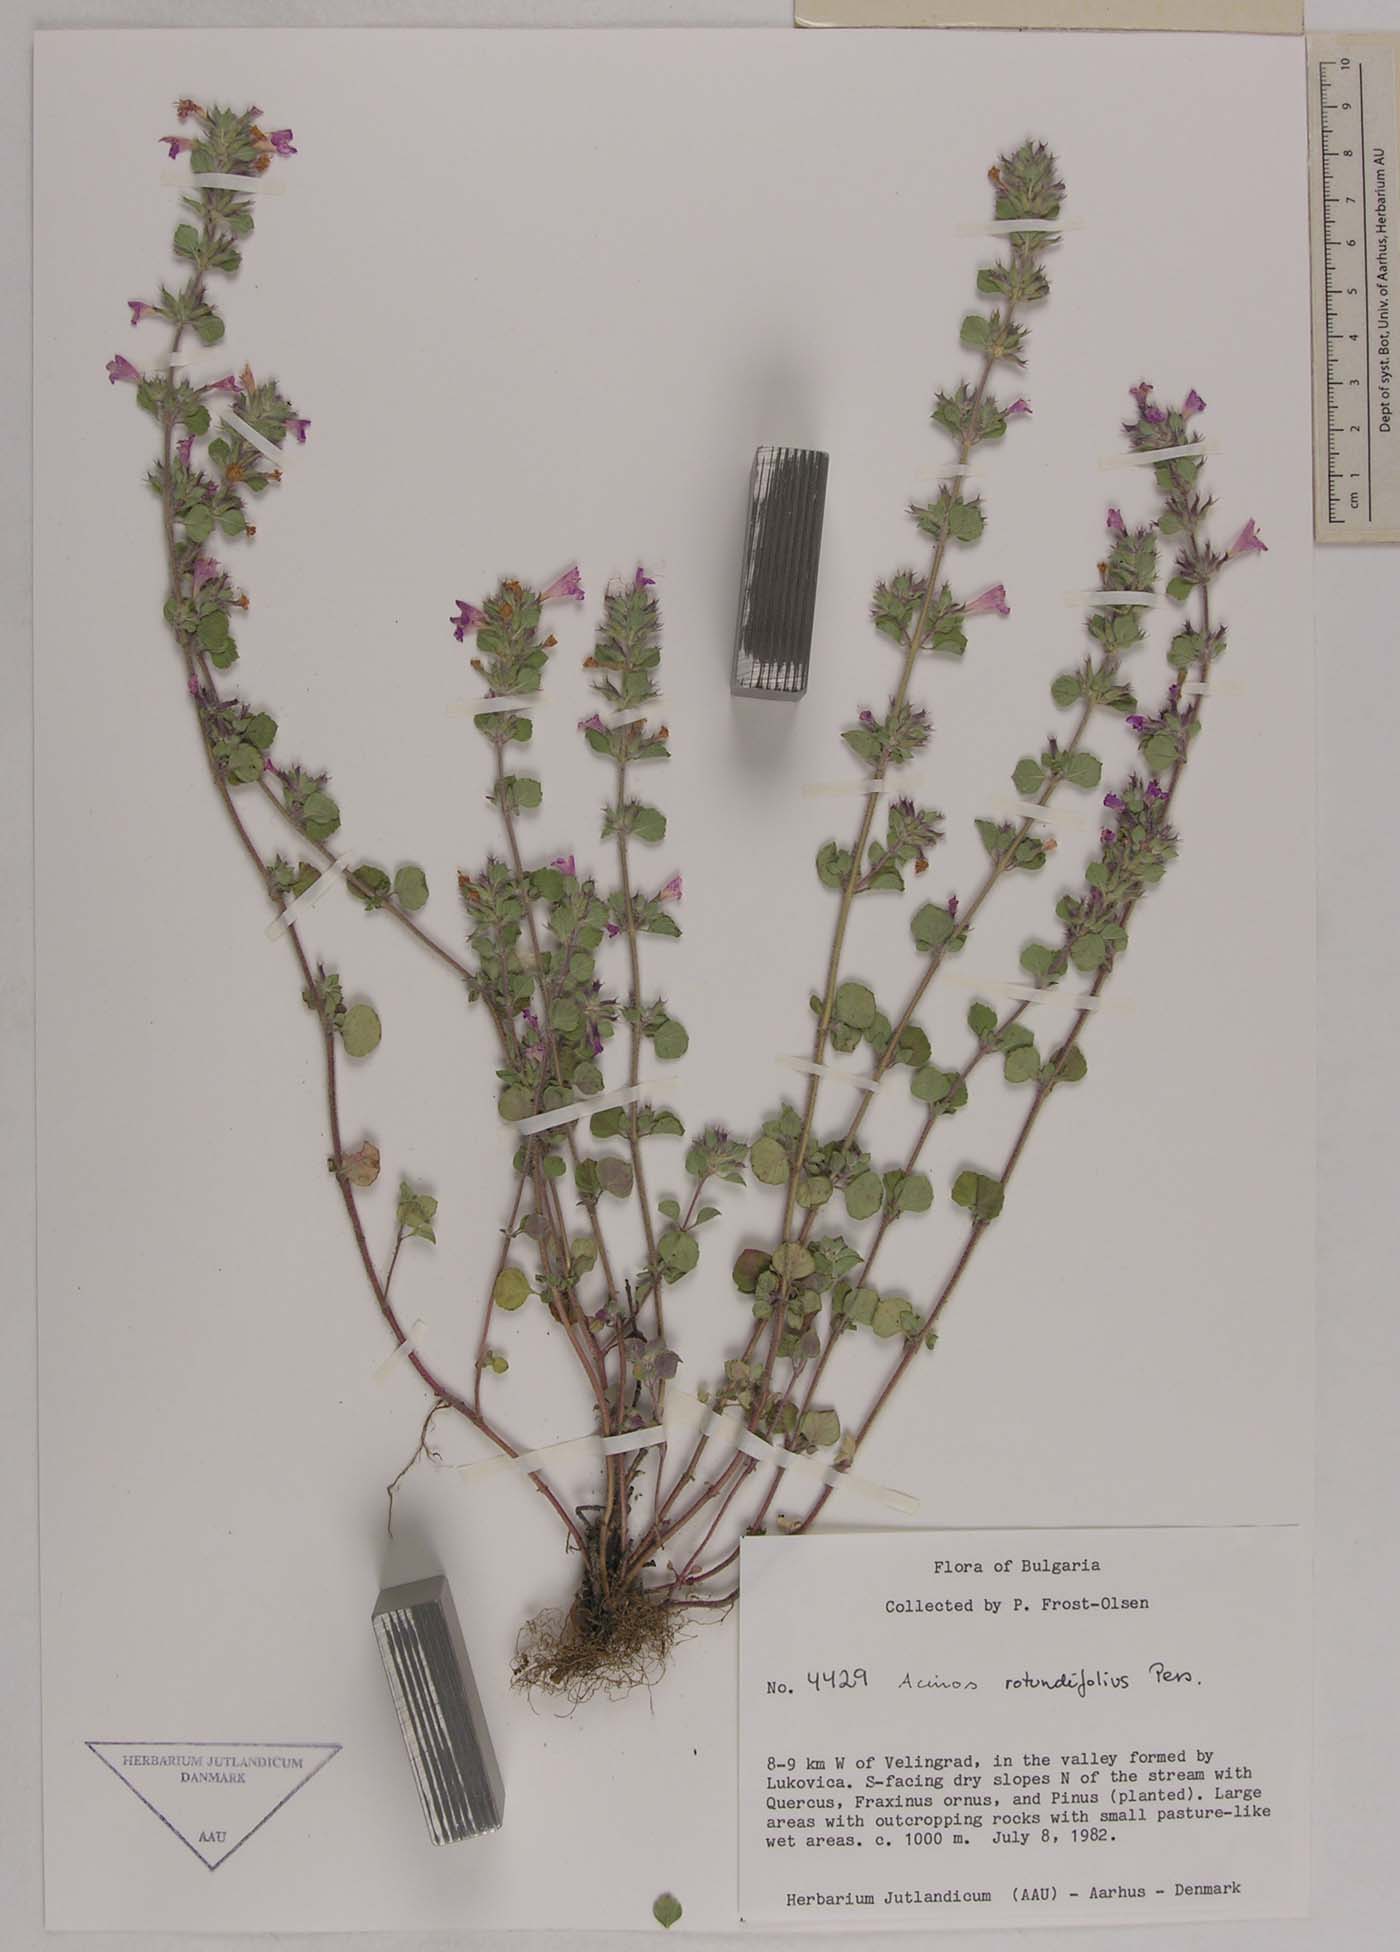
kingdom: Plantae
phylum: Tracheophyta
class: Magnoliopsida
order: Lamiales
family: Lamiaceae
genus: Clinopodium
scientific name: Clinopodium alpinum
